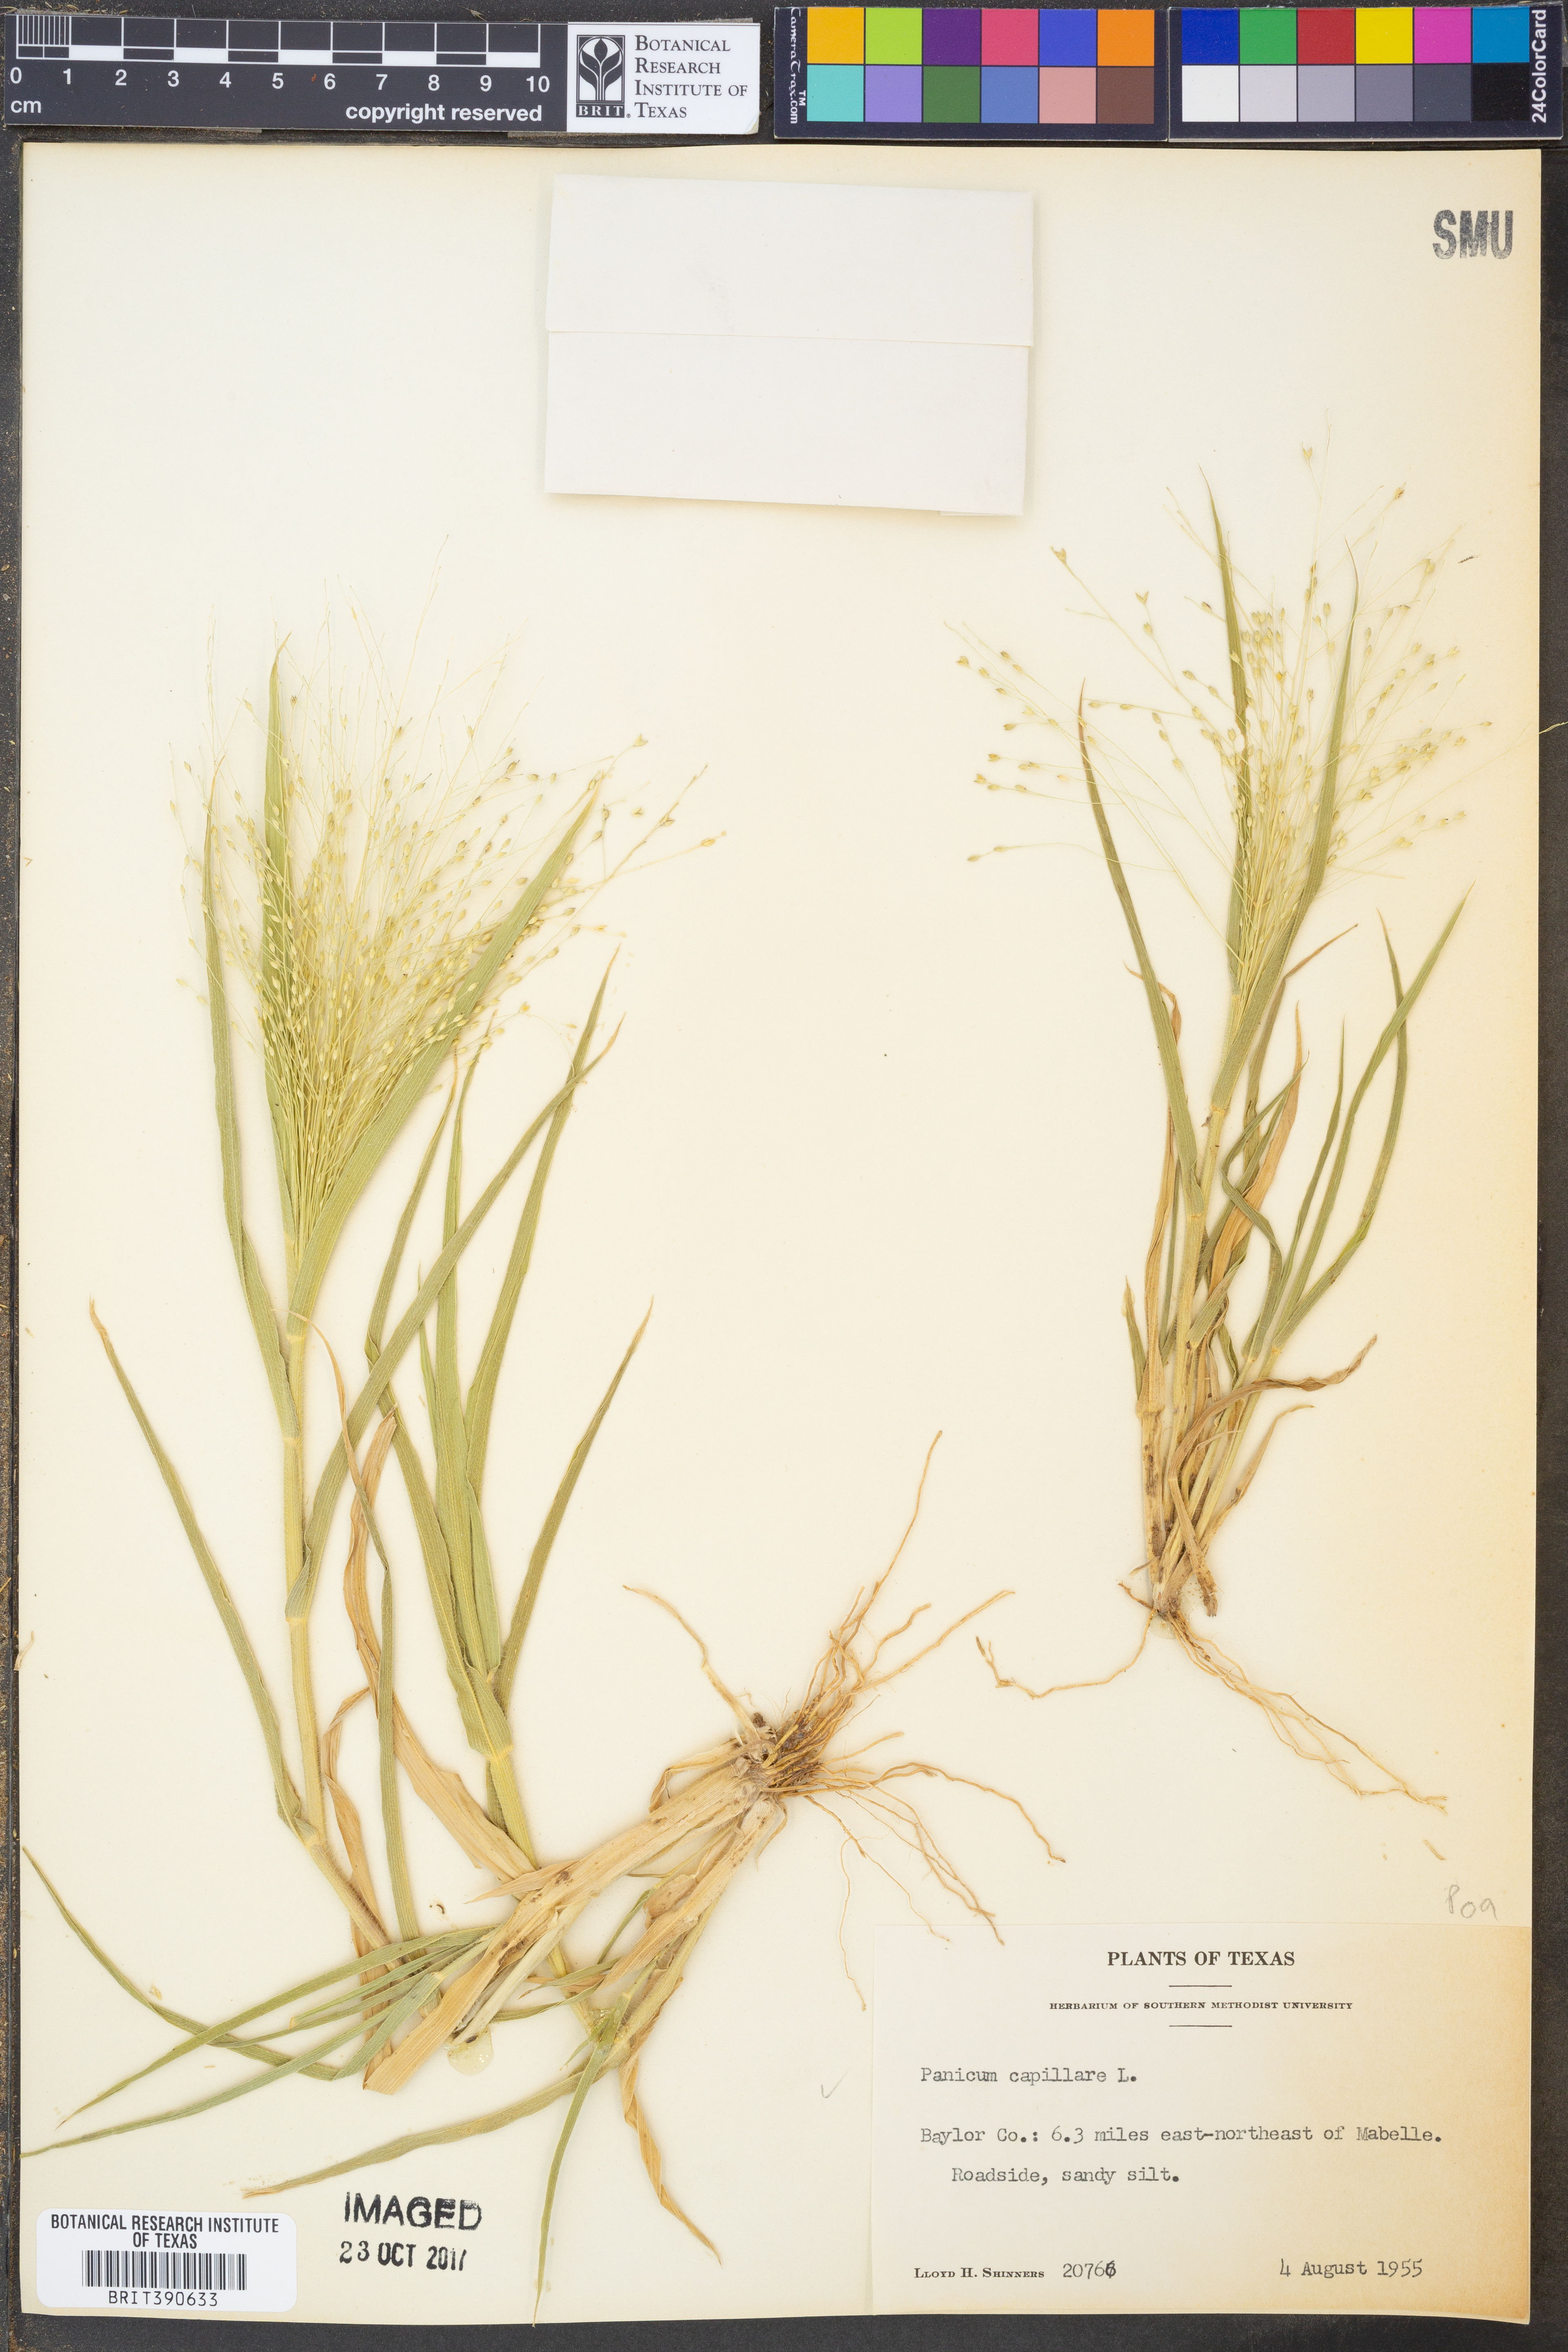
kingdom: Plantae
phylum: Tracheophyta
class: Liliopsida
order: Poales
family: Poaceae
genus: Panicum
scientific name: Panicum capillare
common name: Witch-grass
